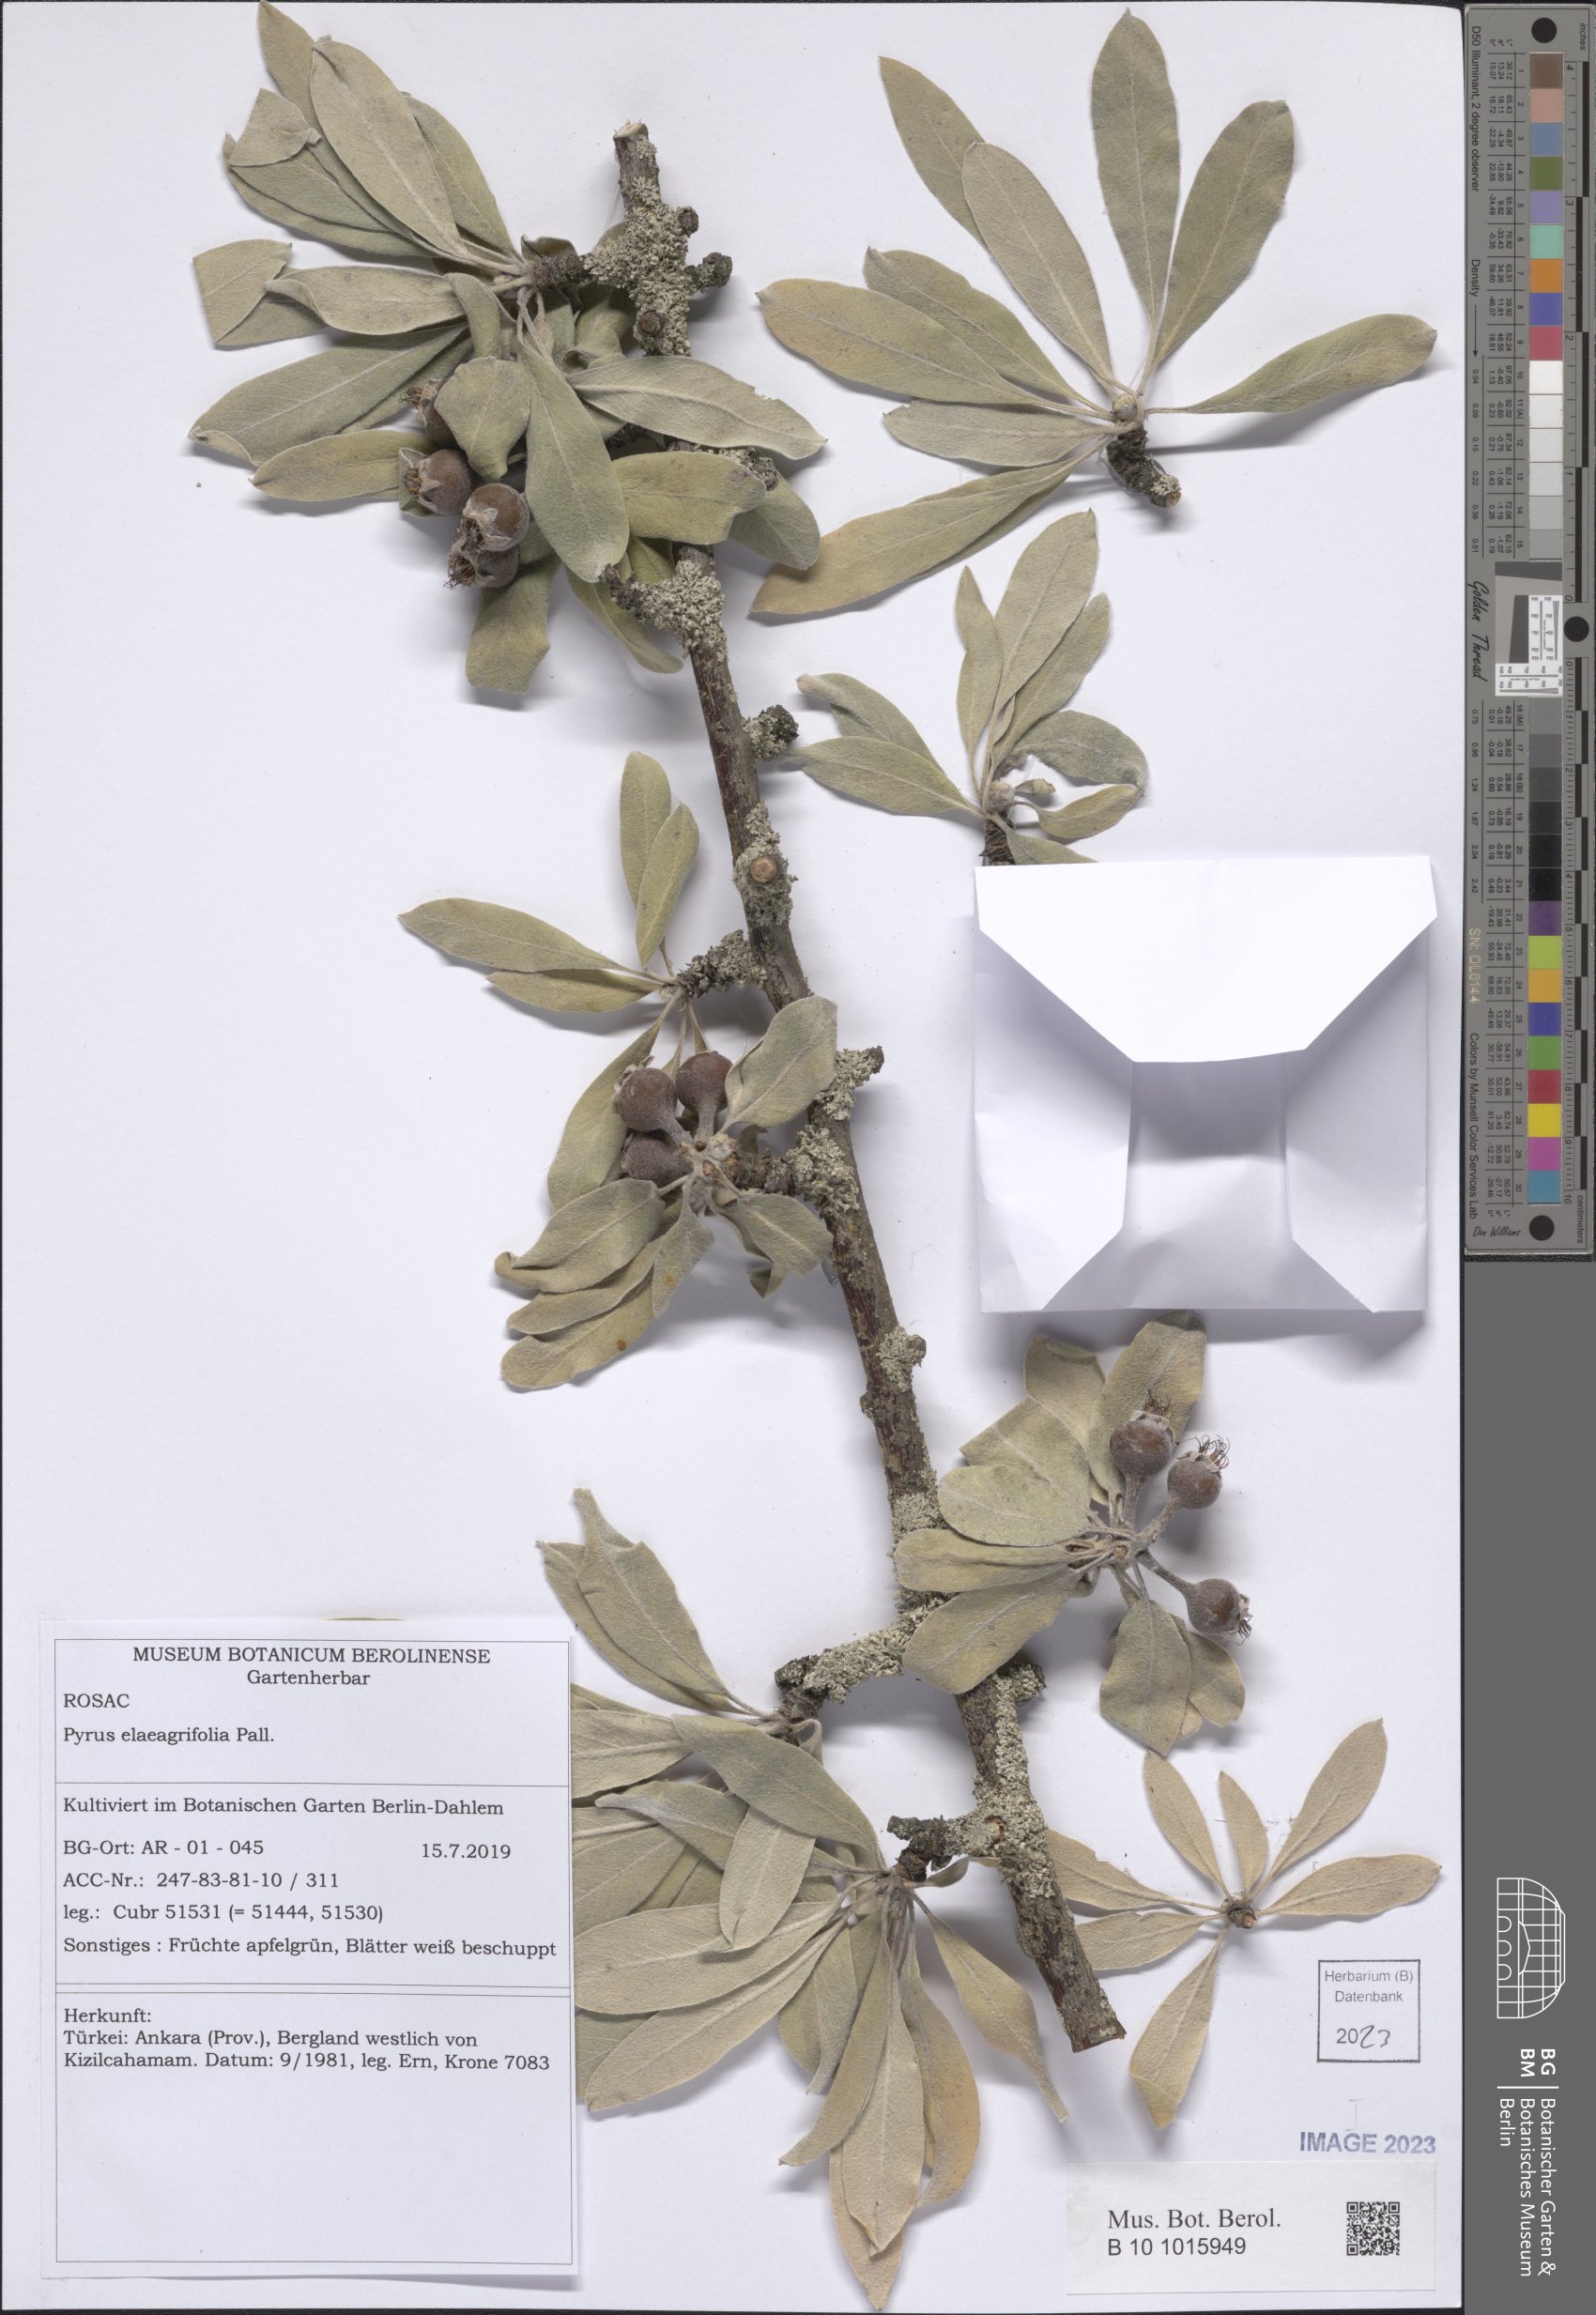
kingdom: Plantae
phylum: Tracheophyta
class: Magnoliopsida
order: Rosales
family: Rosaceae
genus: Pyrus
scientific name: Pyrus elaeagnifolia
